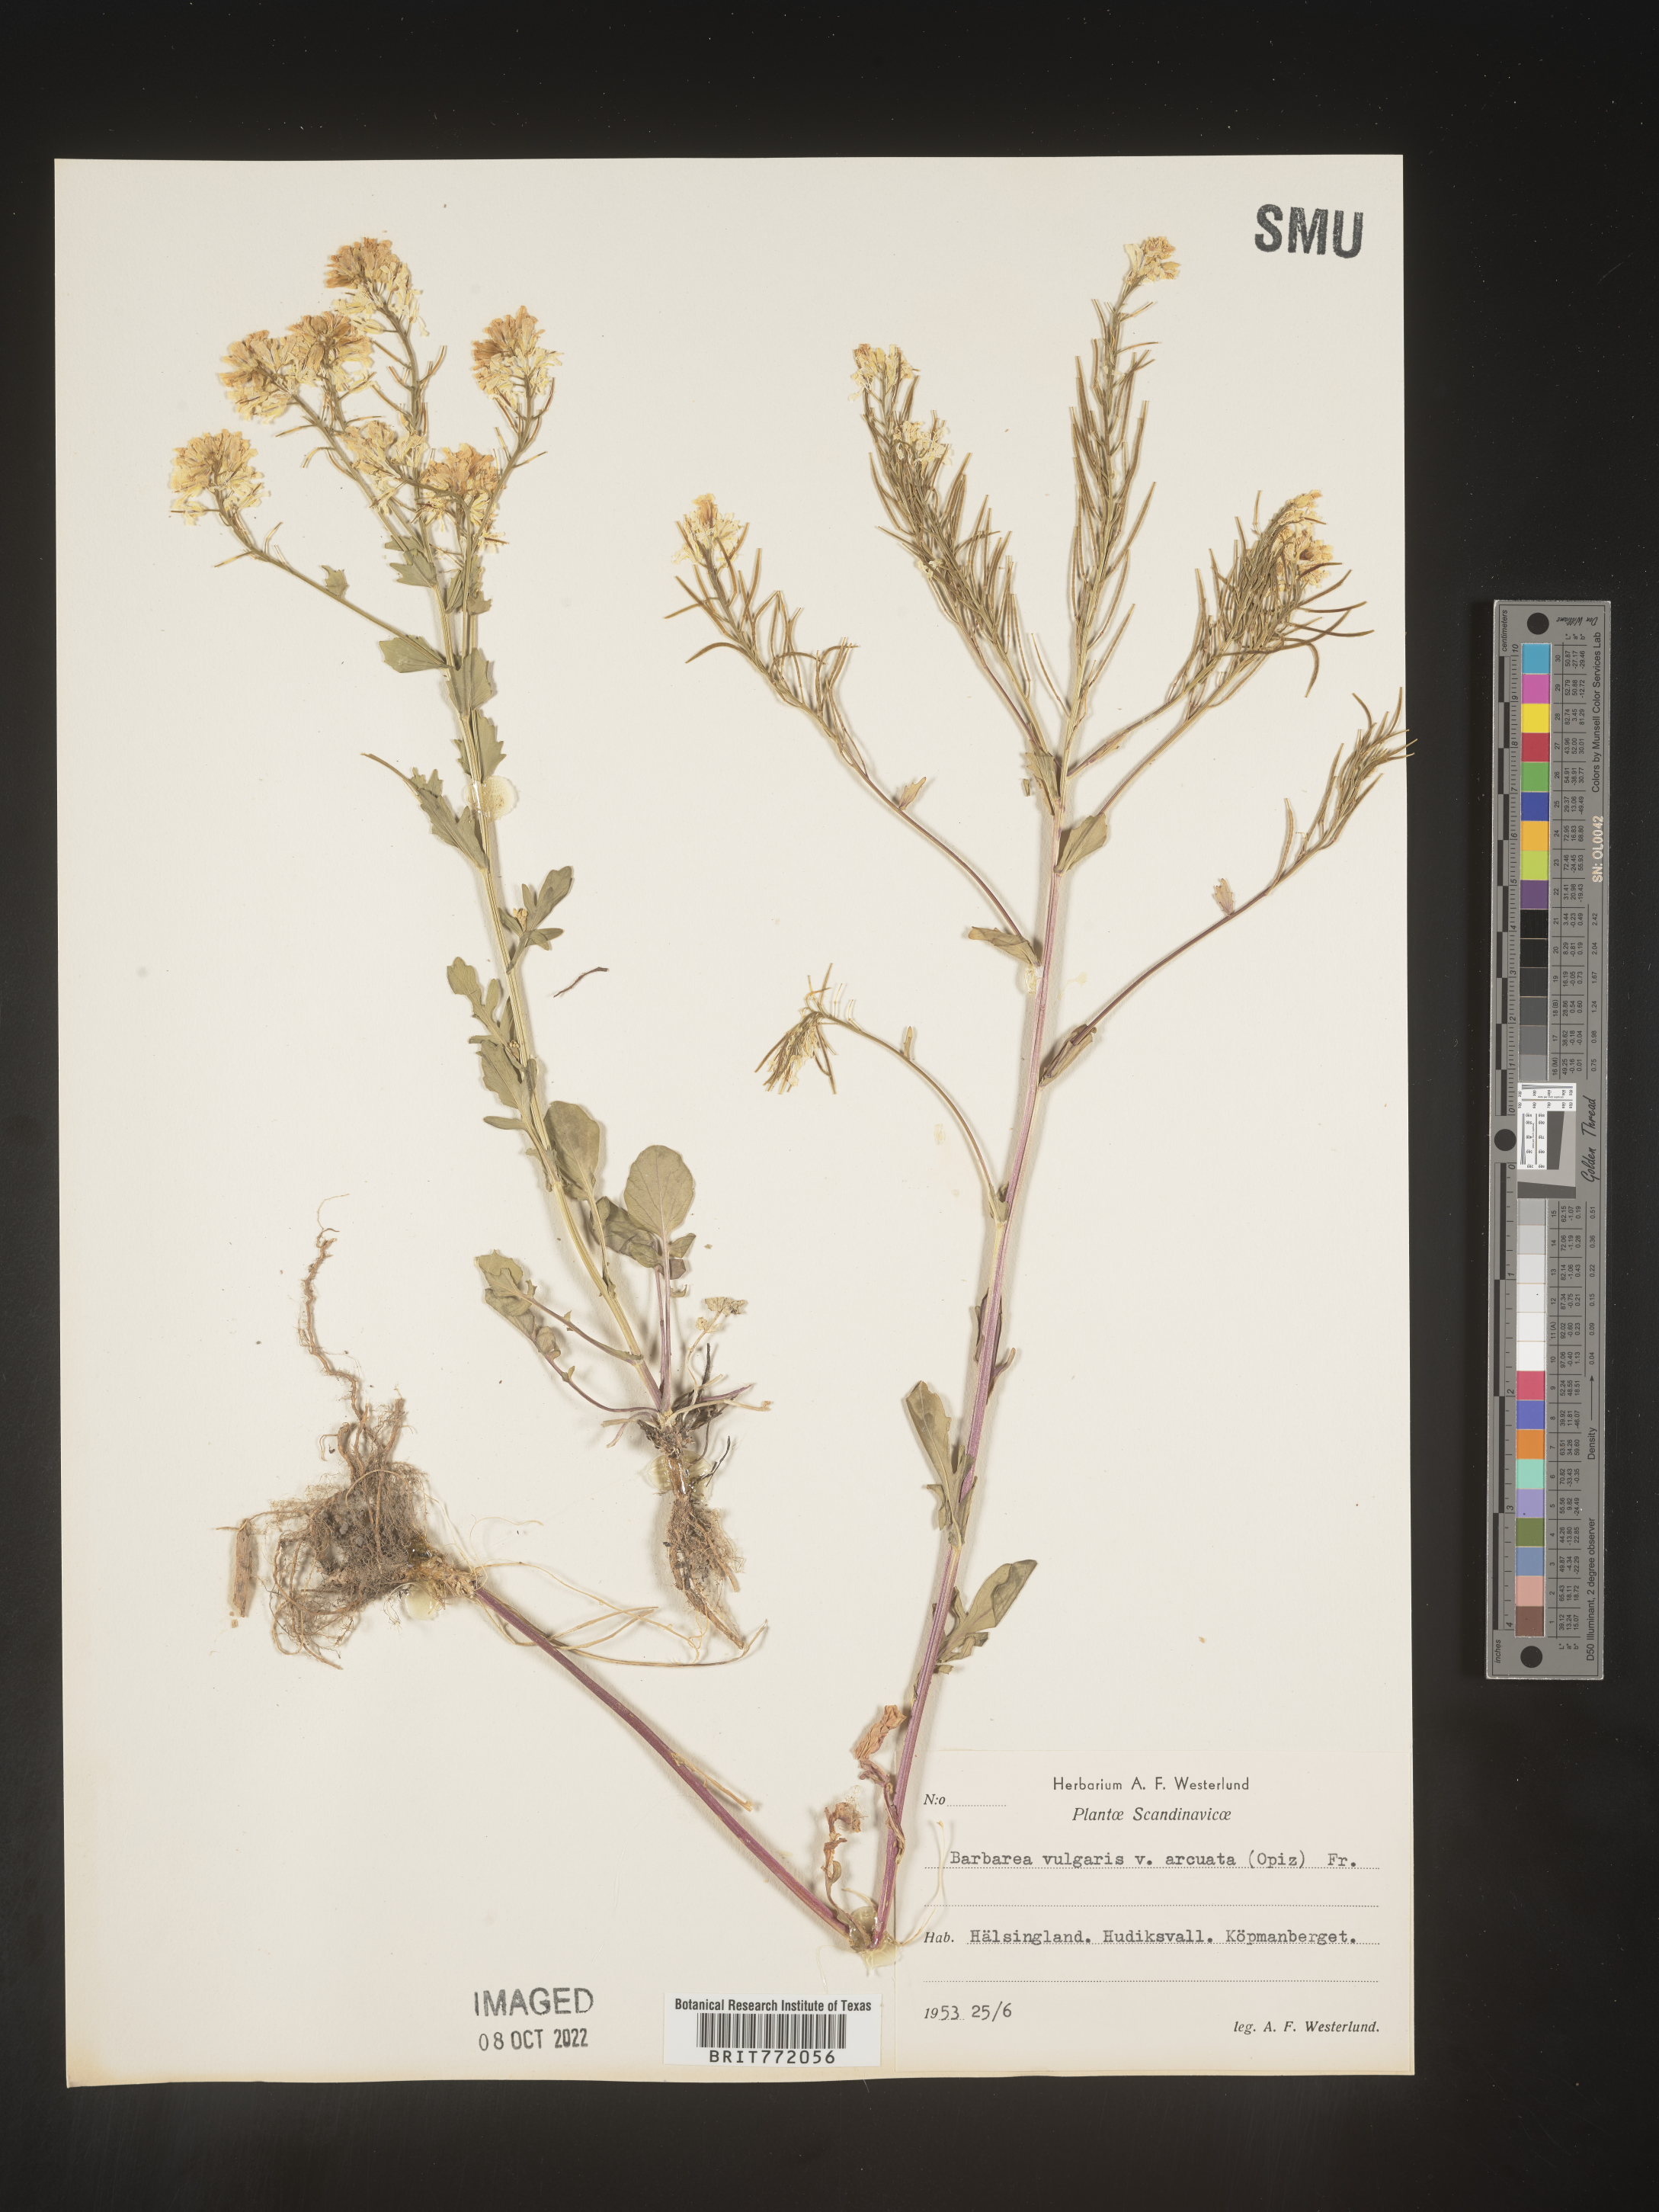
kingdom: Plantae
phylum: Tracheophyta
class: Magnoliopsida
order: Brassicales
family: Brassicaceae
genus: Barbarea
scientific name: Barbarea
